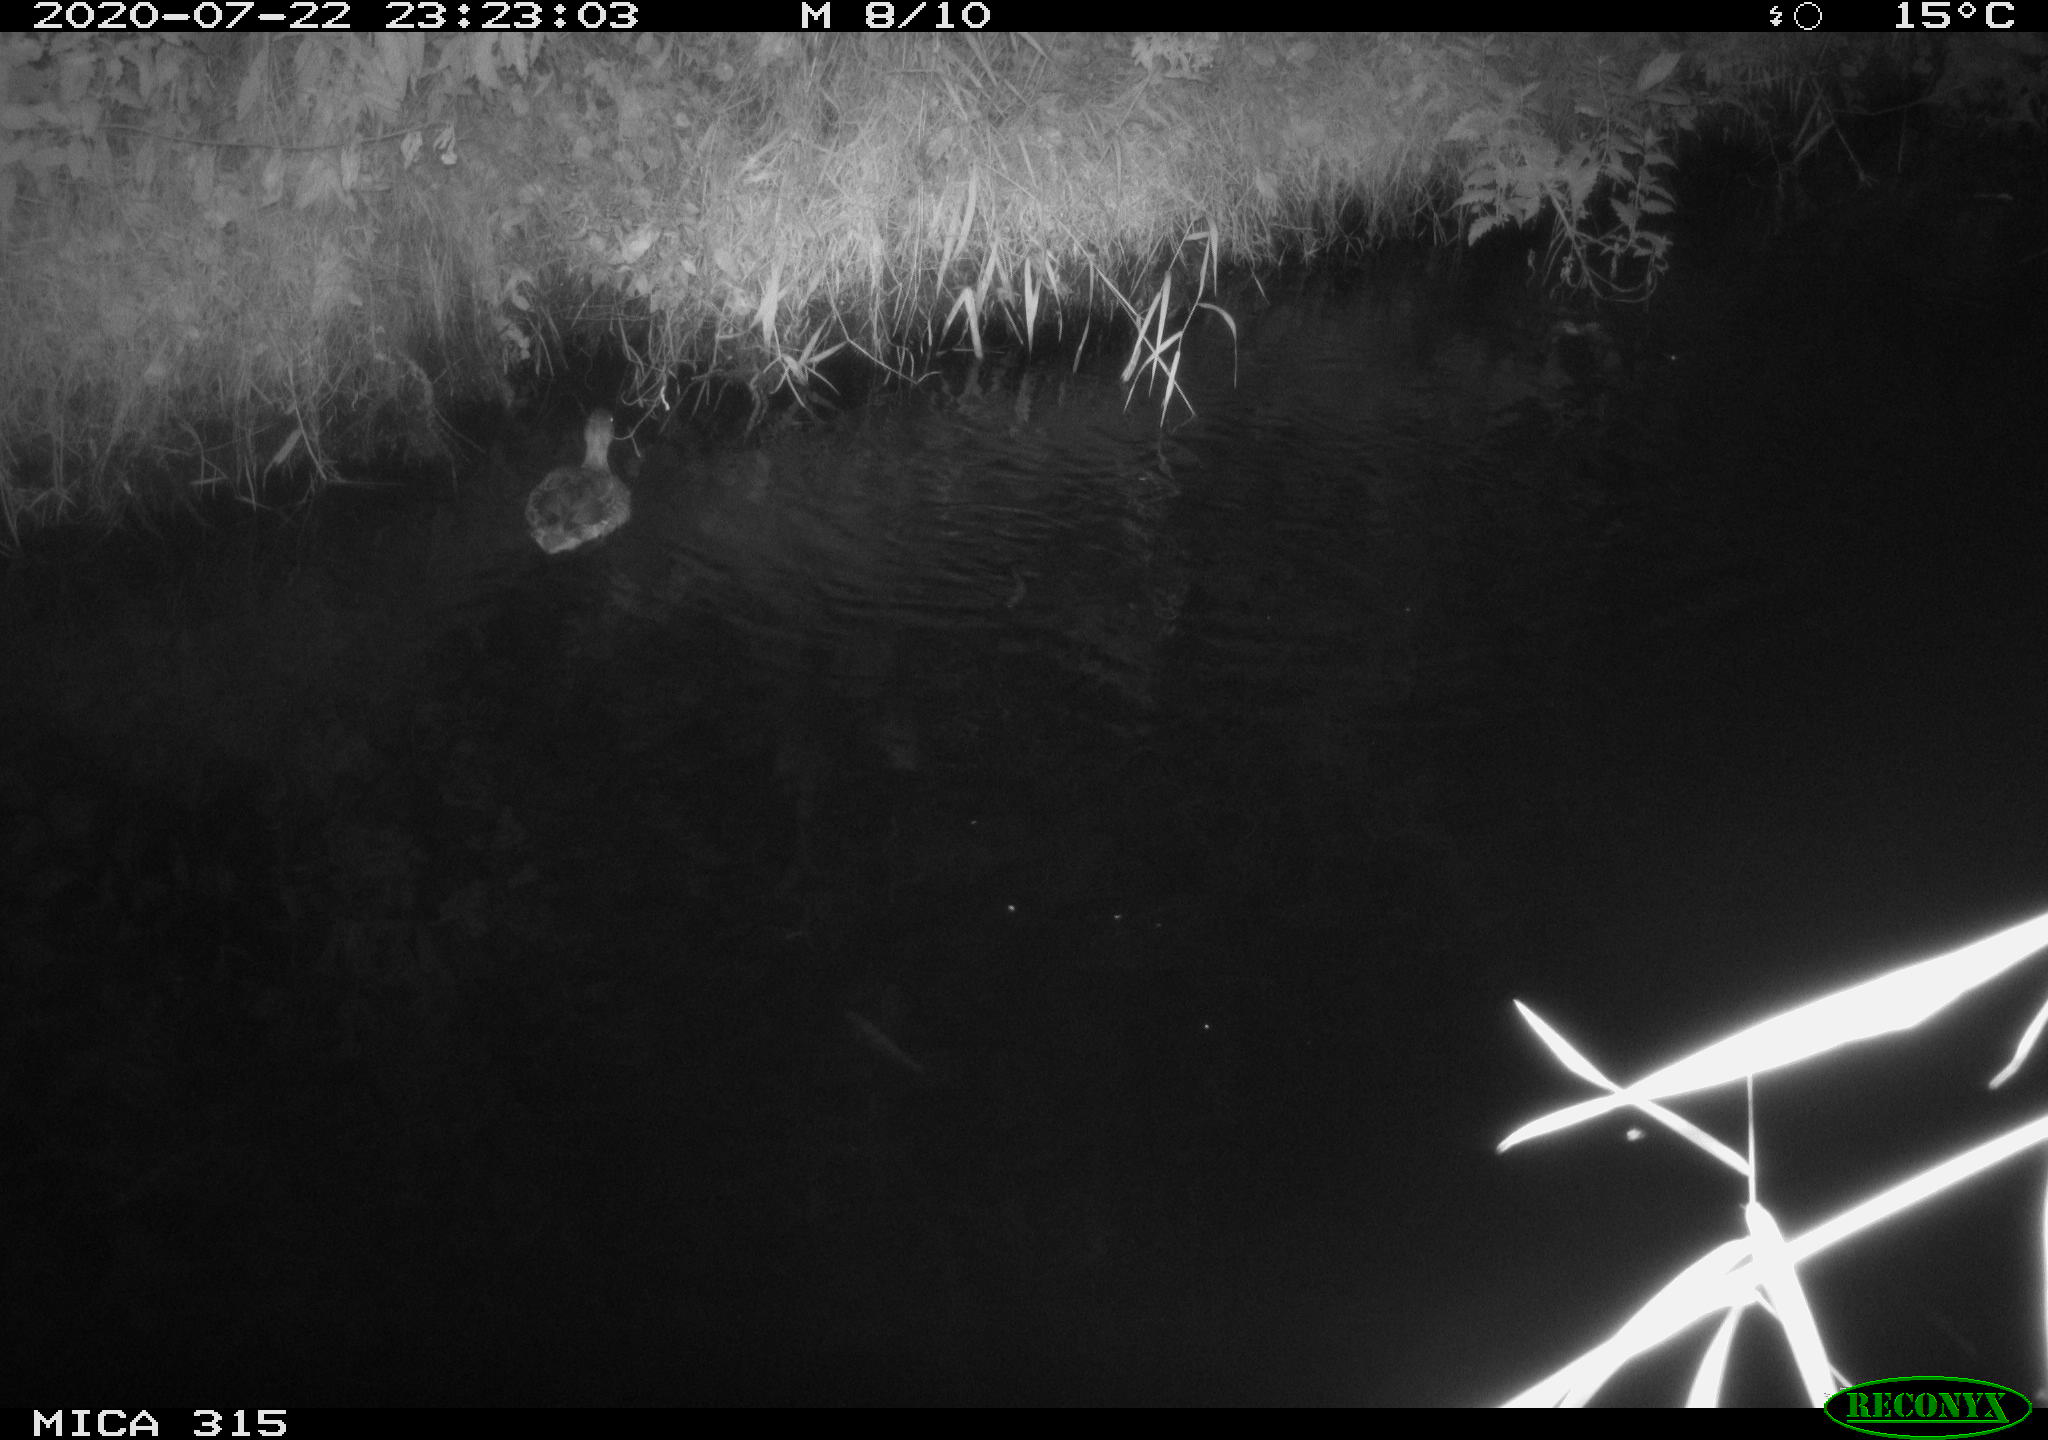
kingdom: Animalia
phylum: Chordata
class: Aves
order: Anseriformes
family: Anatidae
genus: Anas
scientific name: Anas platyrhynchos
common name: Mallard
